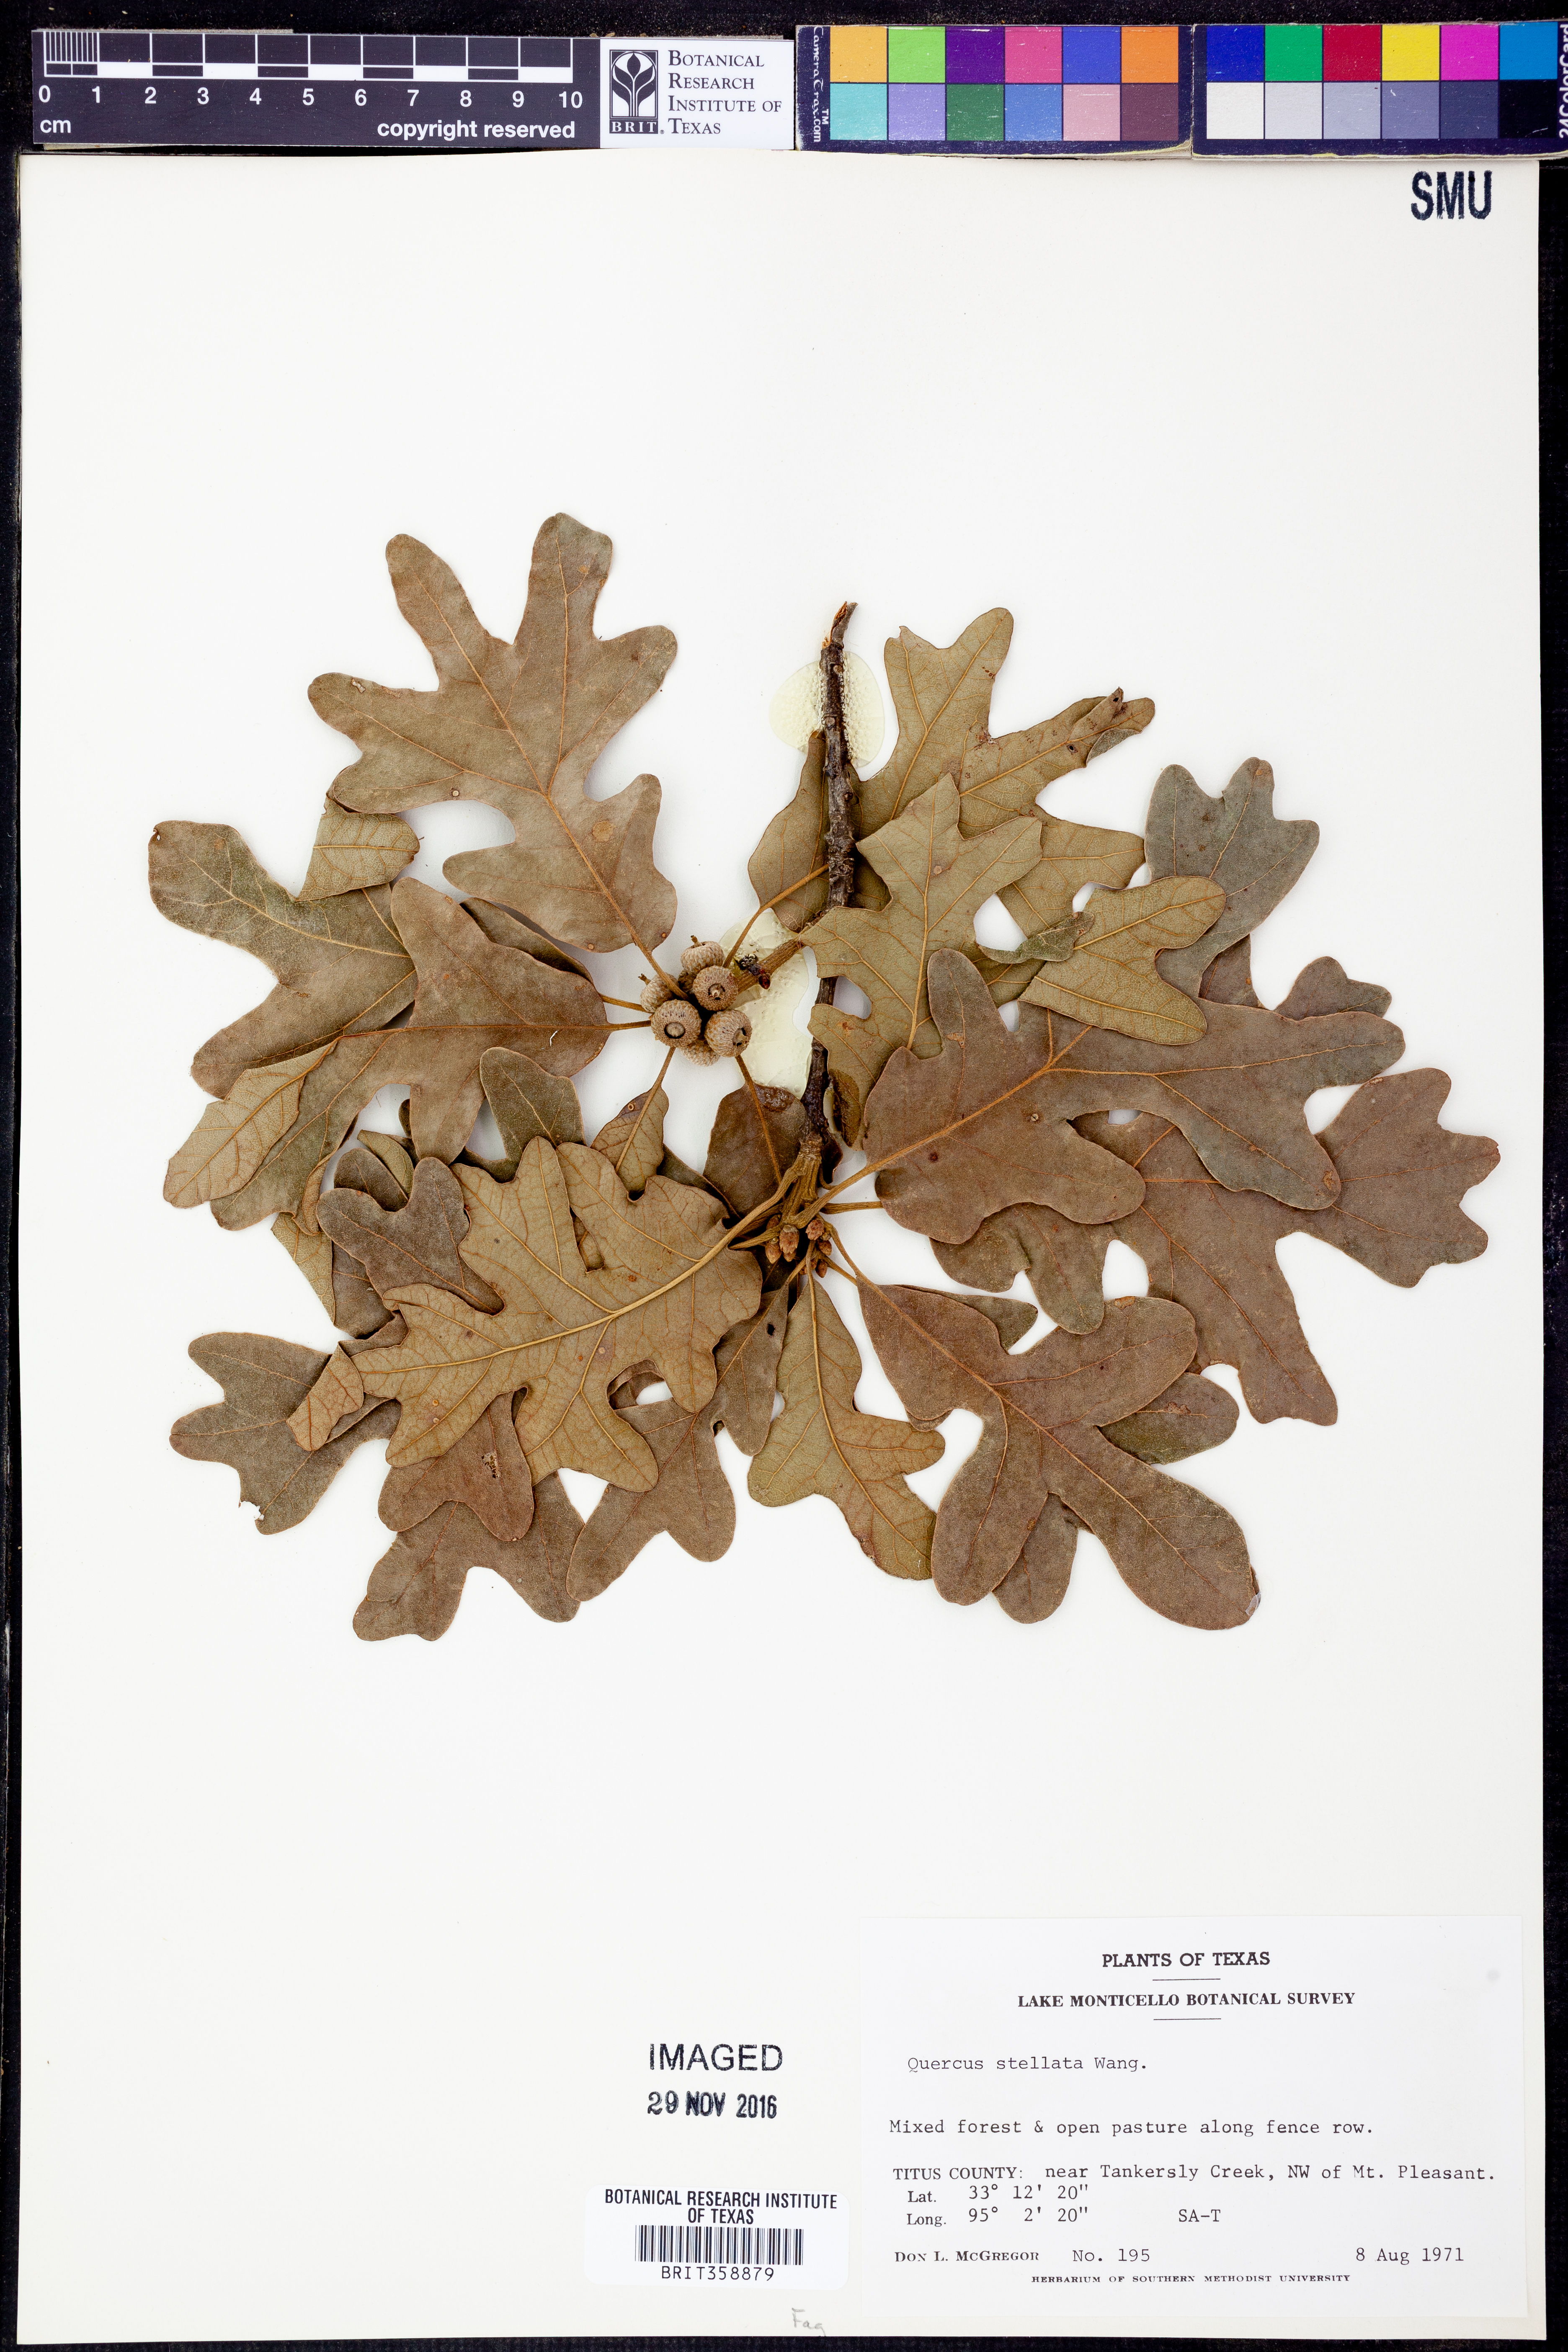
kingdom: Plantae
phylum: Tracheophyta
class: Magnoliopsida
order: Fagales
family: Fagaceae
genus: Quercus
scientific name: Quercus stellata
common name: Post oak
